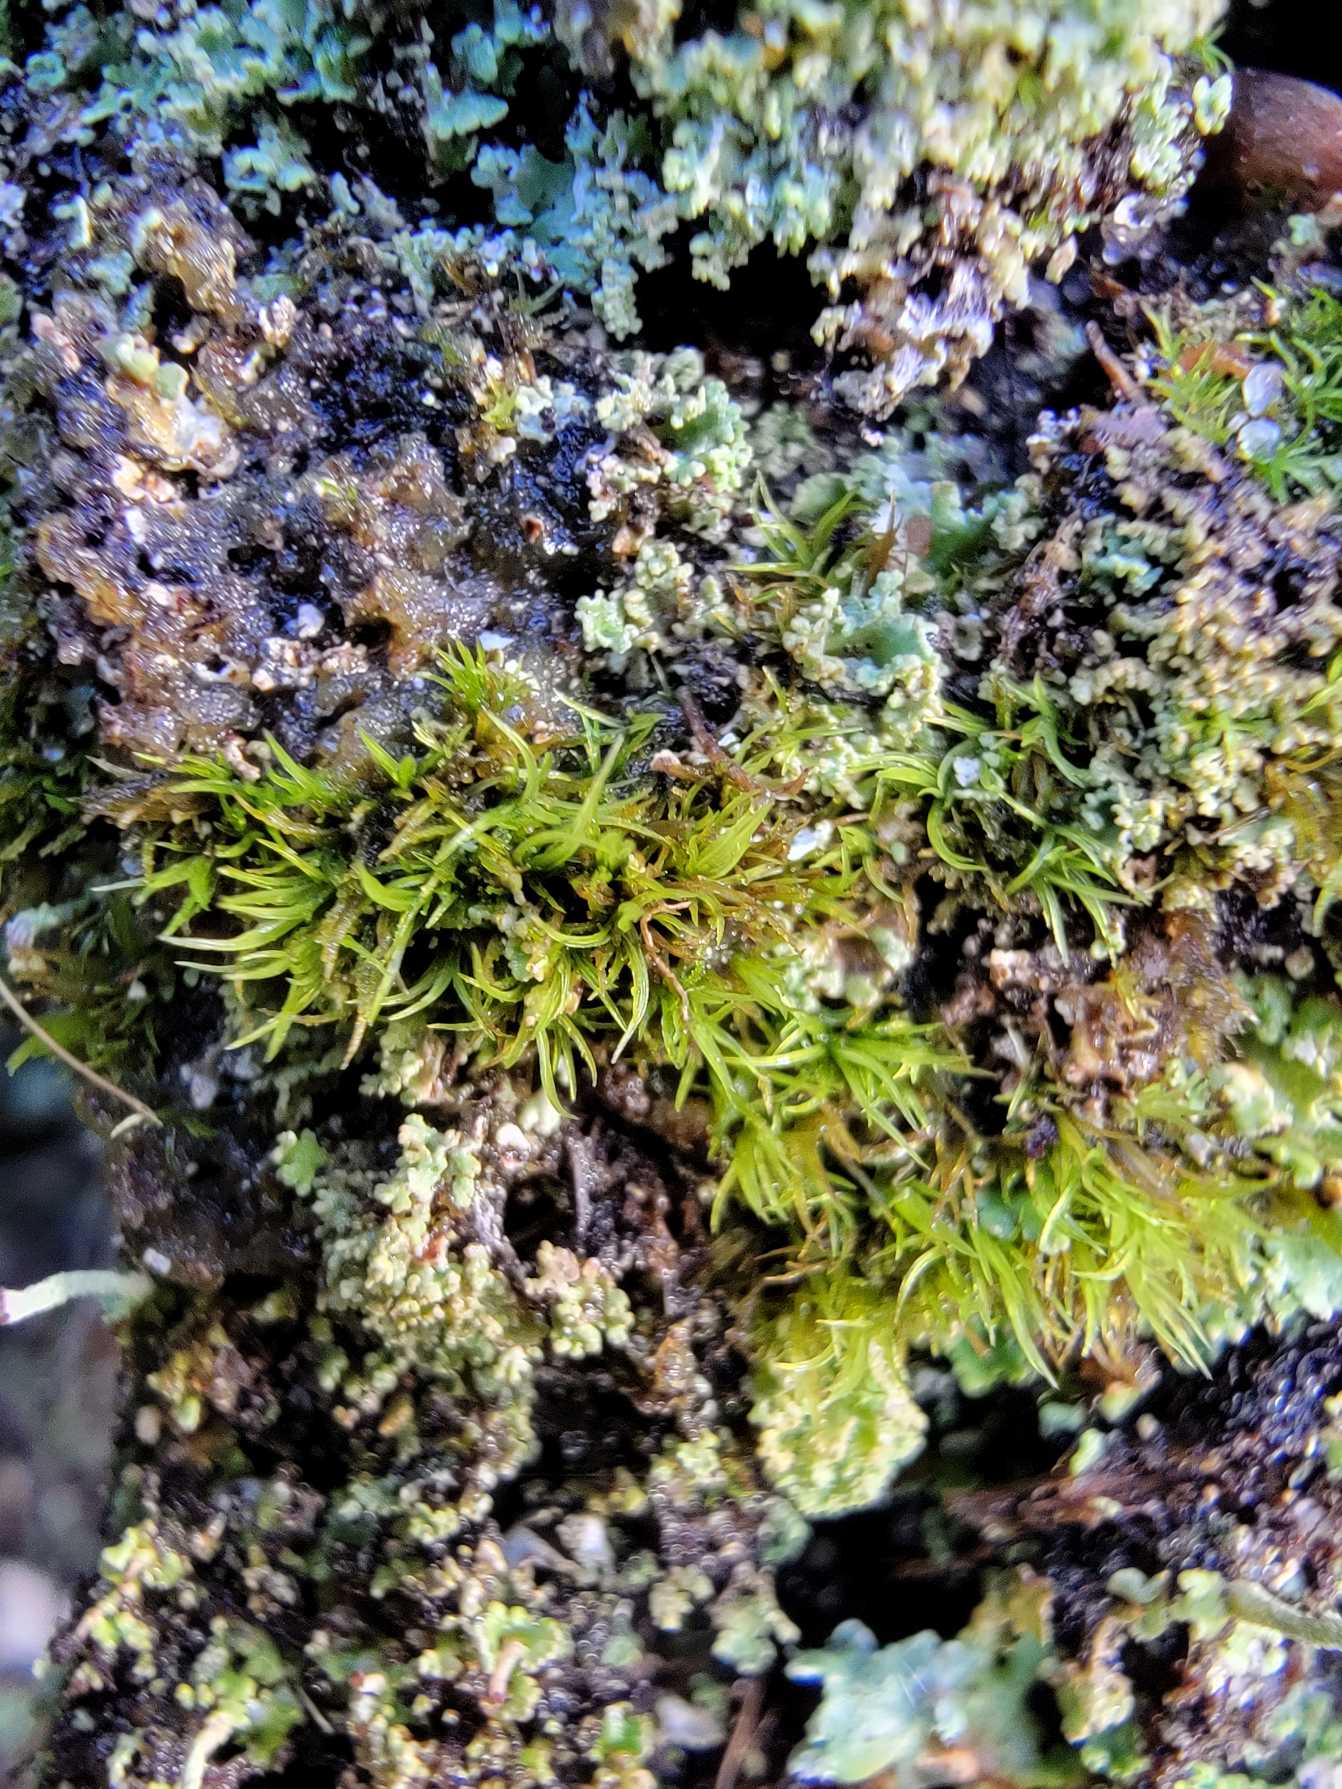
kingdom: Plantae
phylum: Bryophyta
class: Bryopsida
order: Dicranales
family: Rhabdoweisiaceae
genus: Cynodontium
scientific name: Cynodontium tenellum
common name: Liden hundetandsmos
